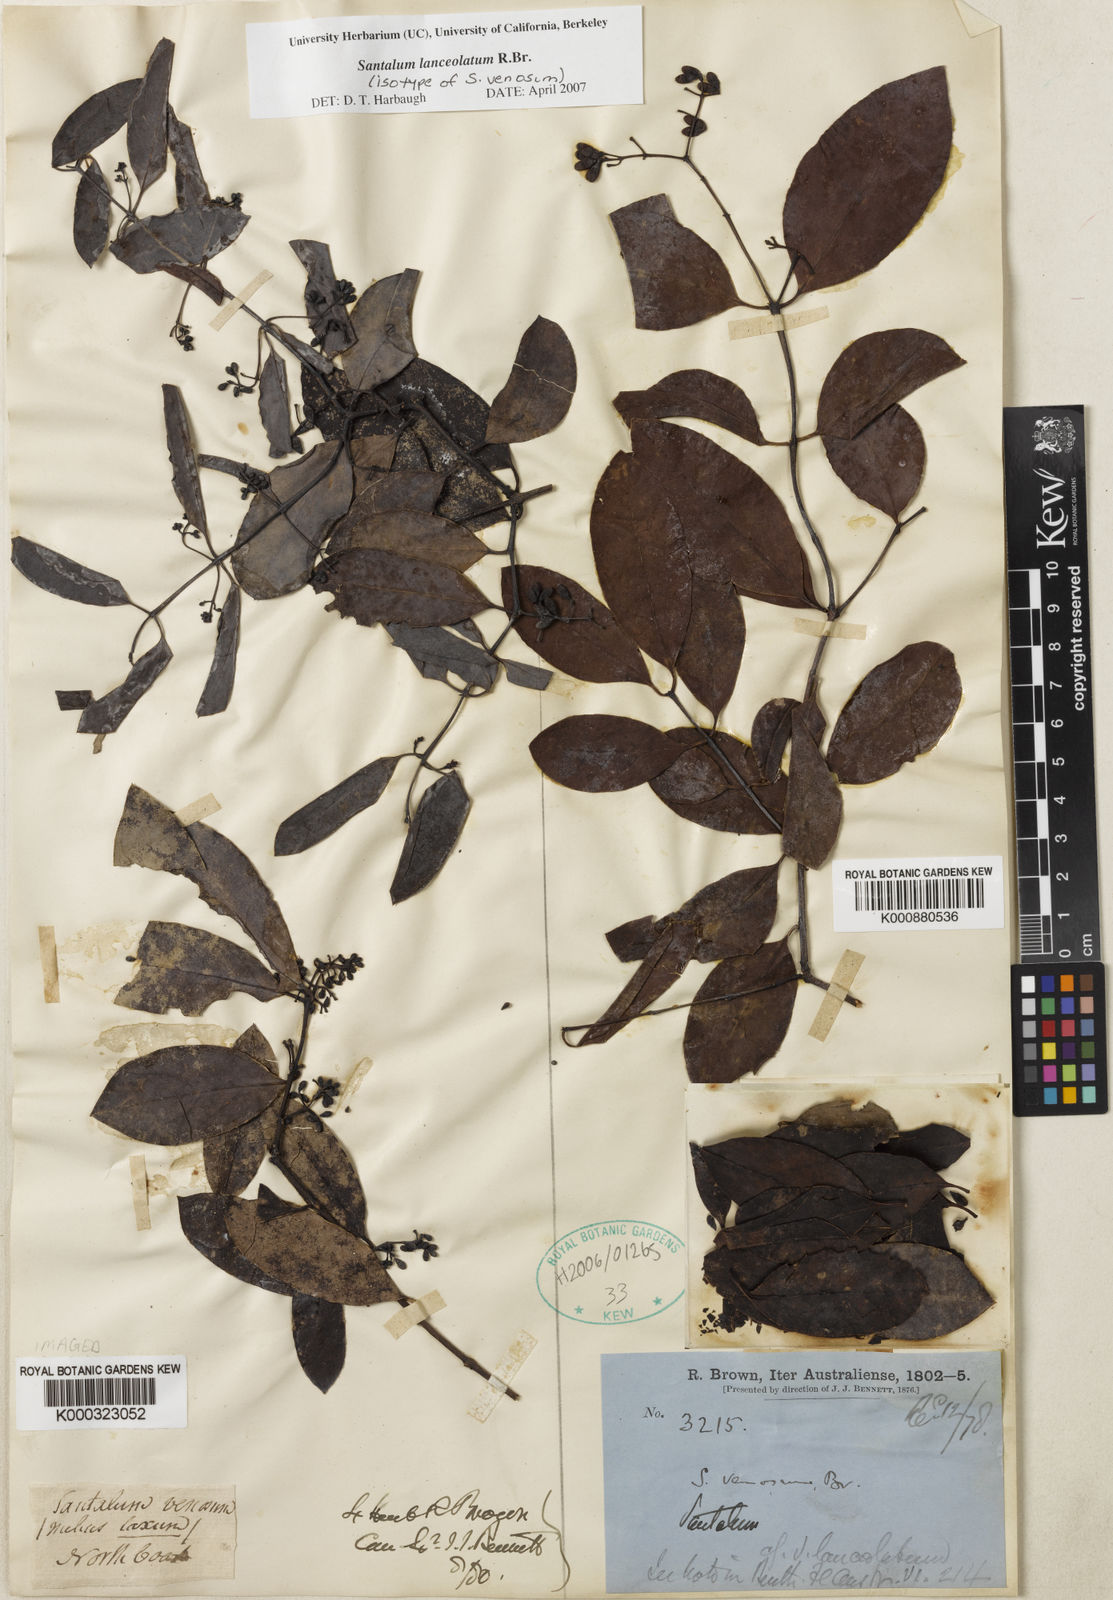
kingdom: Plantae
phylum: Tracheophyta
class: Magnoliopsida
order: Santalales
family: Santalaceae
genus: Santalum
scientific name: Santalum lanceolatum
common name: Ankwerley
